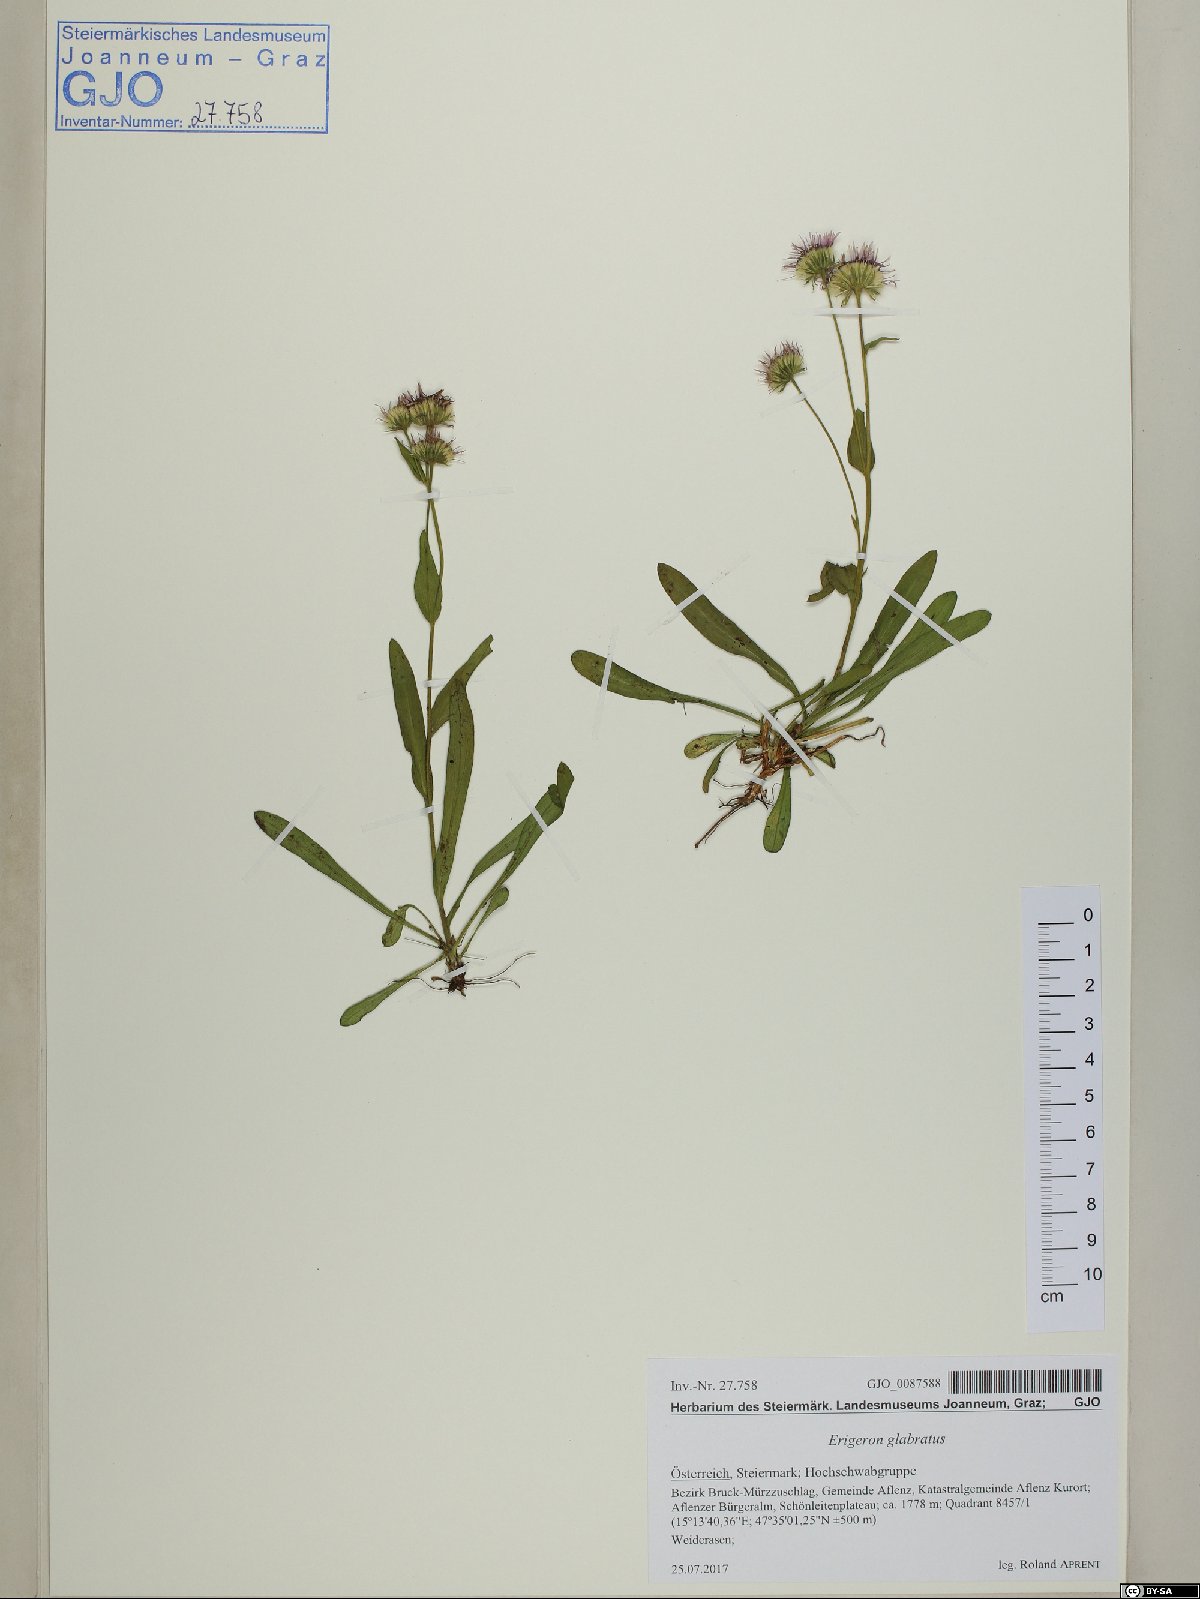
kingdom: Plantae
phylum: Tracheophyta
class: Magnoliopsida
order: Asterales
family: Asteraceae
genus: Erigeron
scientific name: Erigeron glabratus
